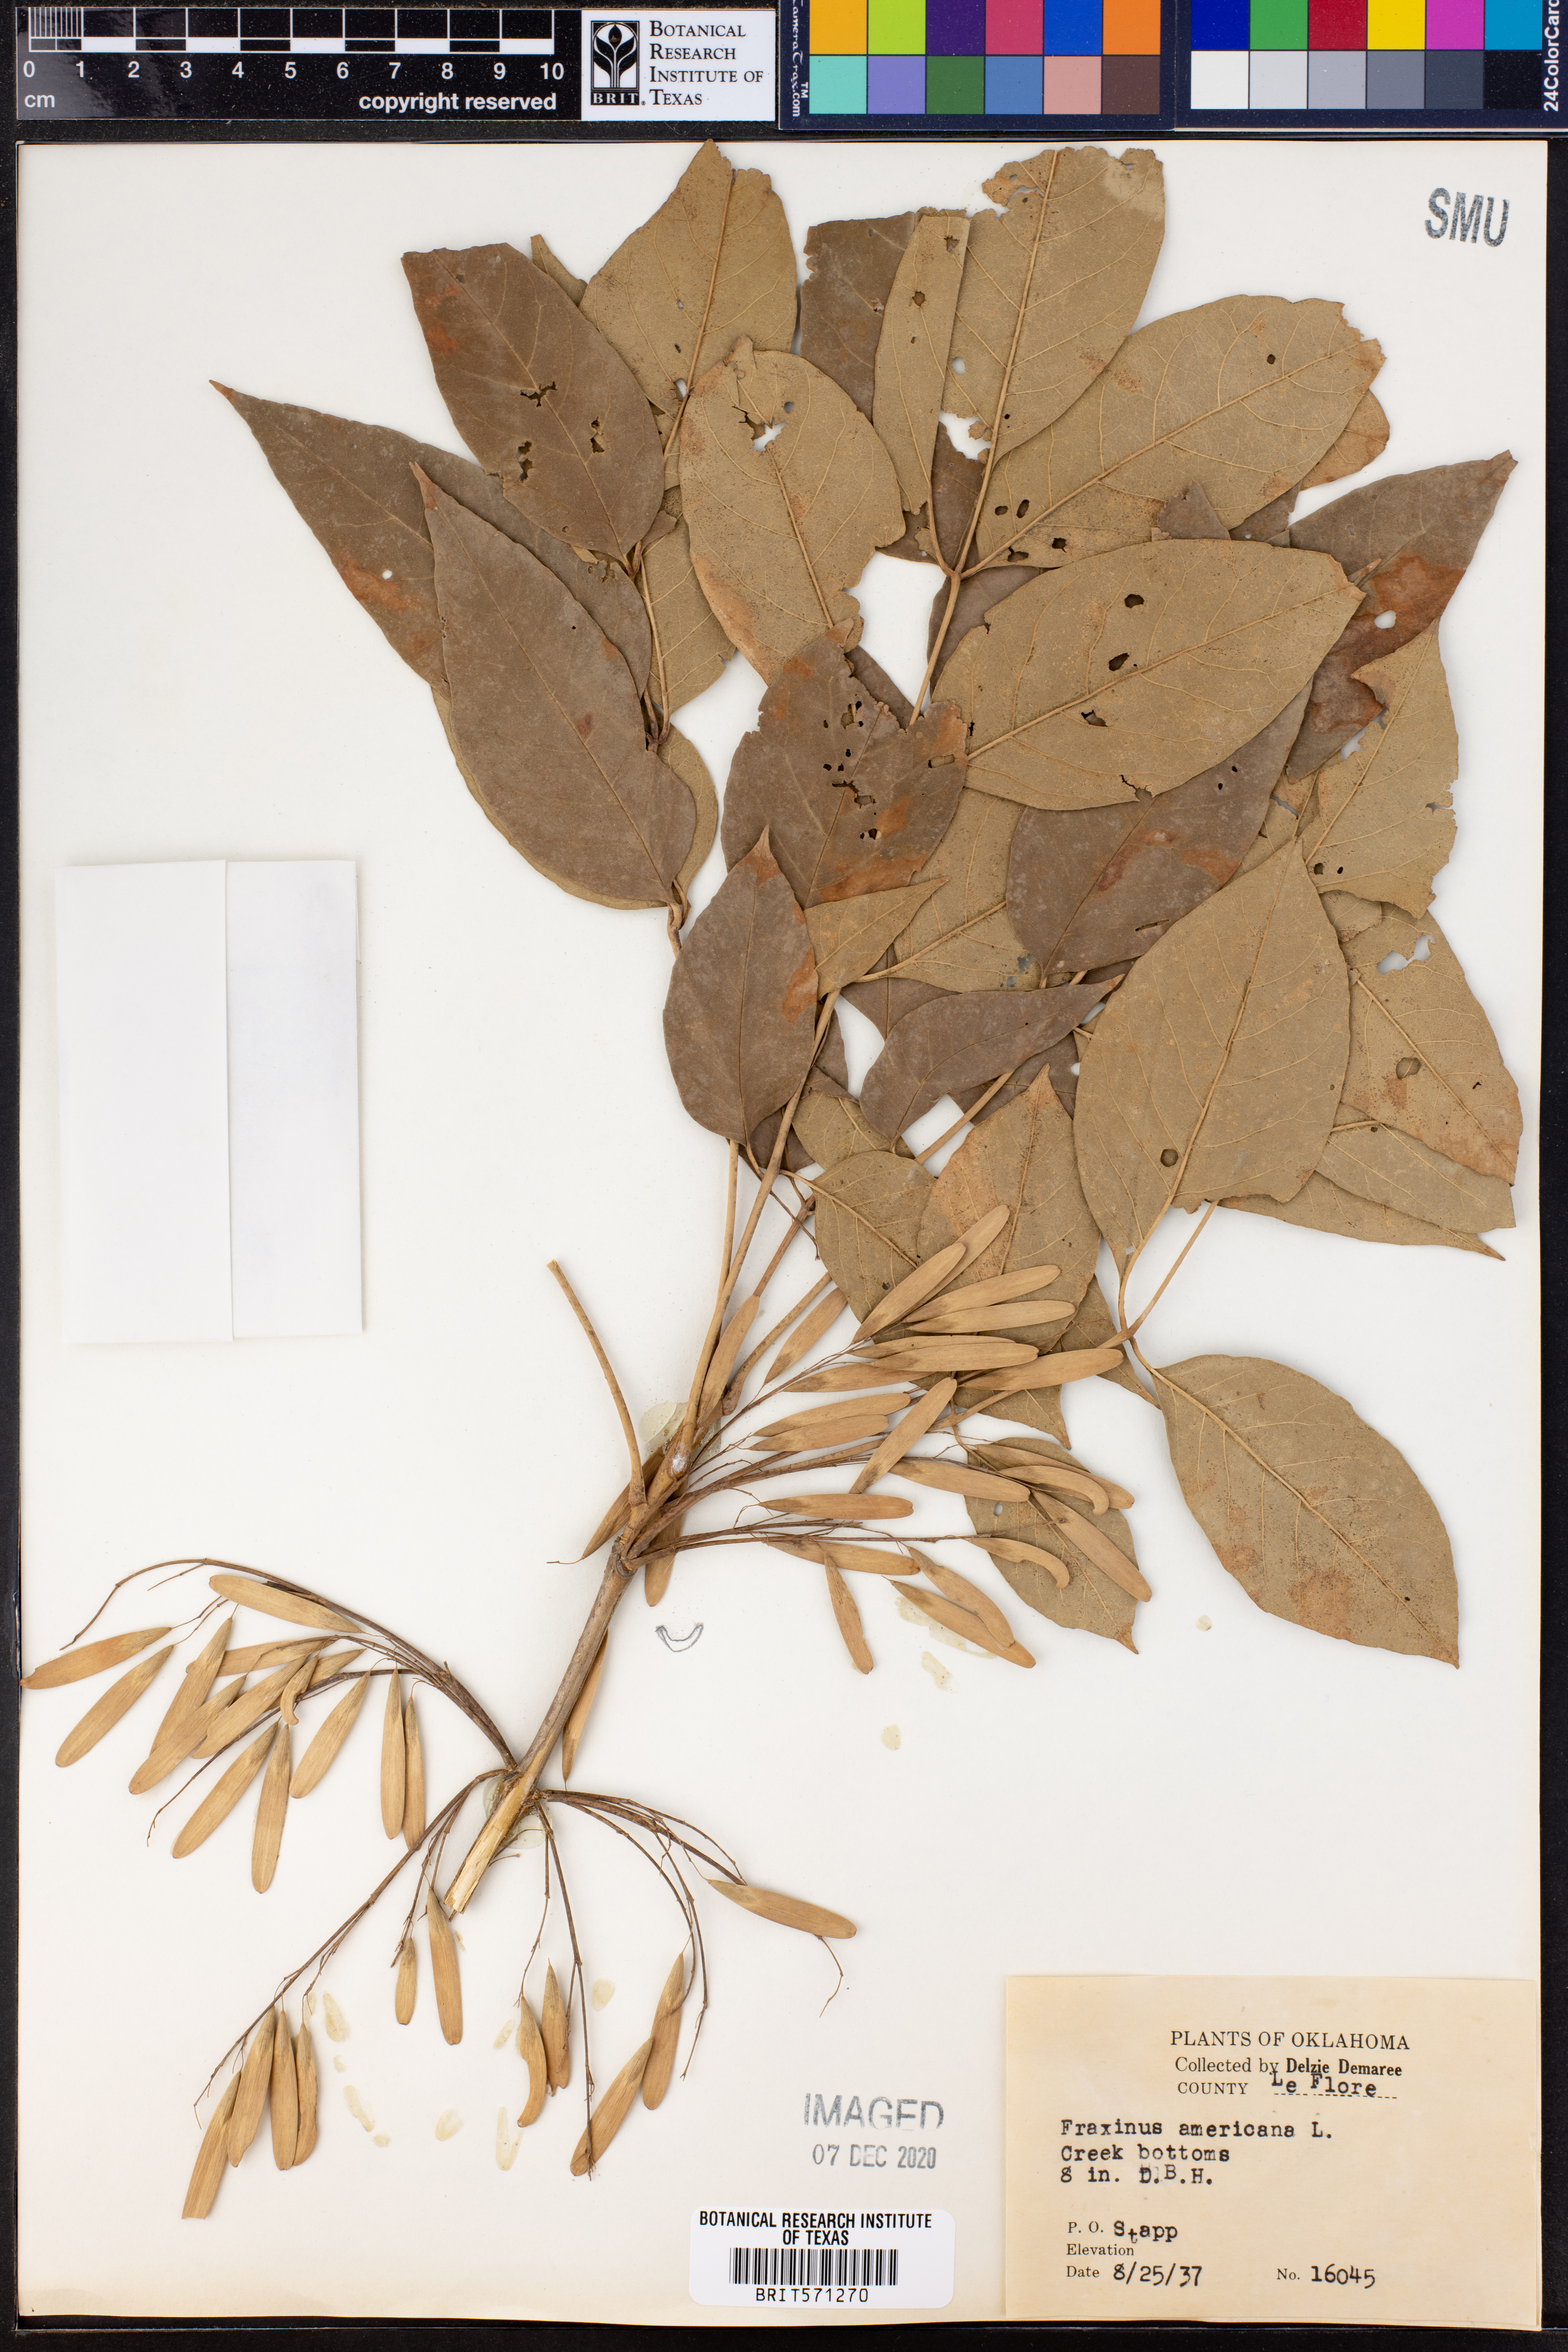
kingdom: Plantae
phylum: Tracheophyta
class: Magnoliopsida
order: Lamiales
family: Oleaceae
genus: Fraxinus
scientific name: Fraxinus americana
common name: White ash
